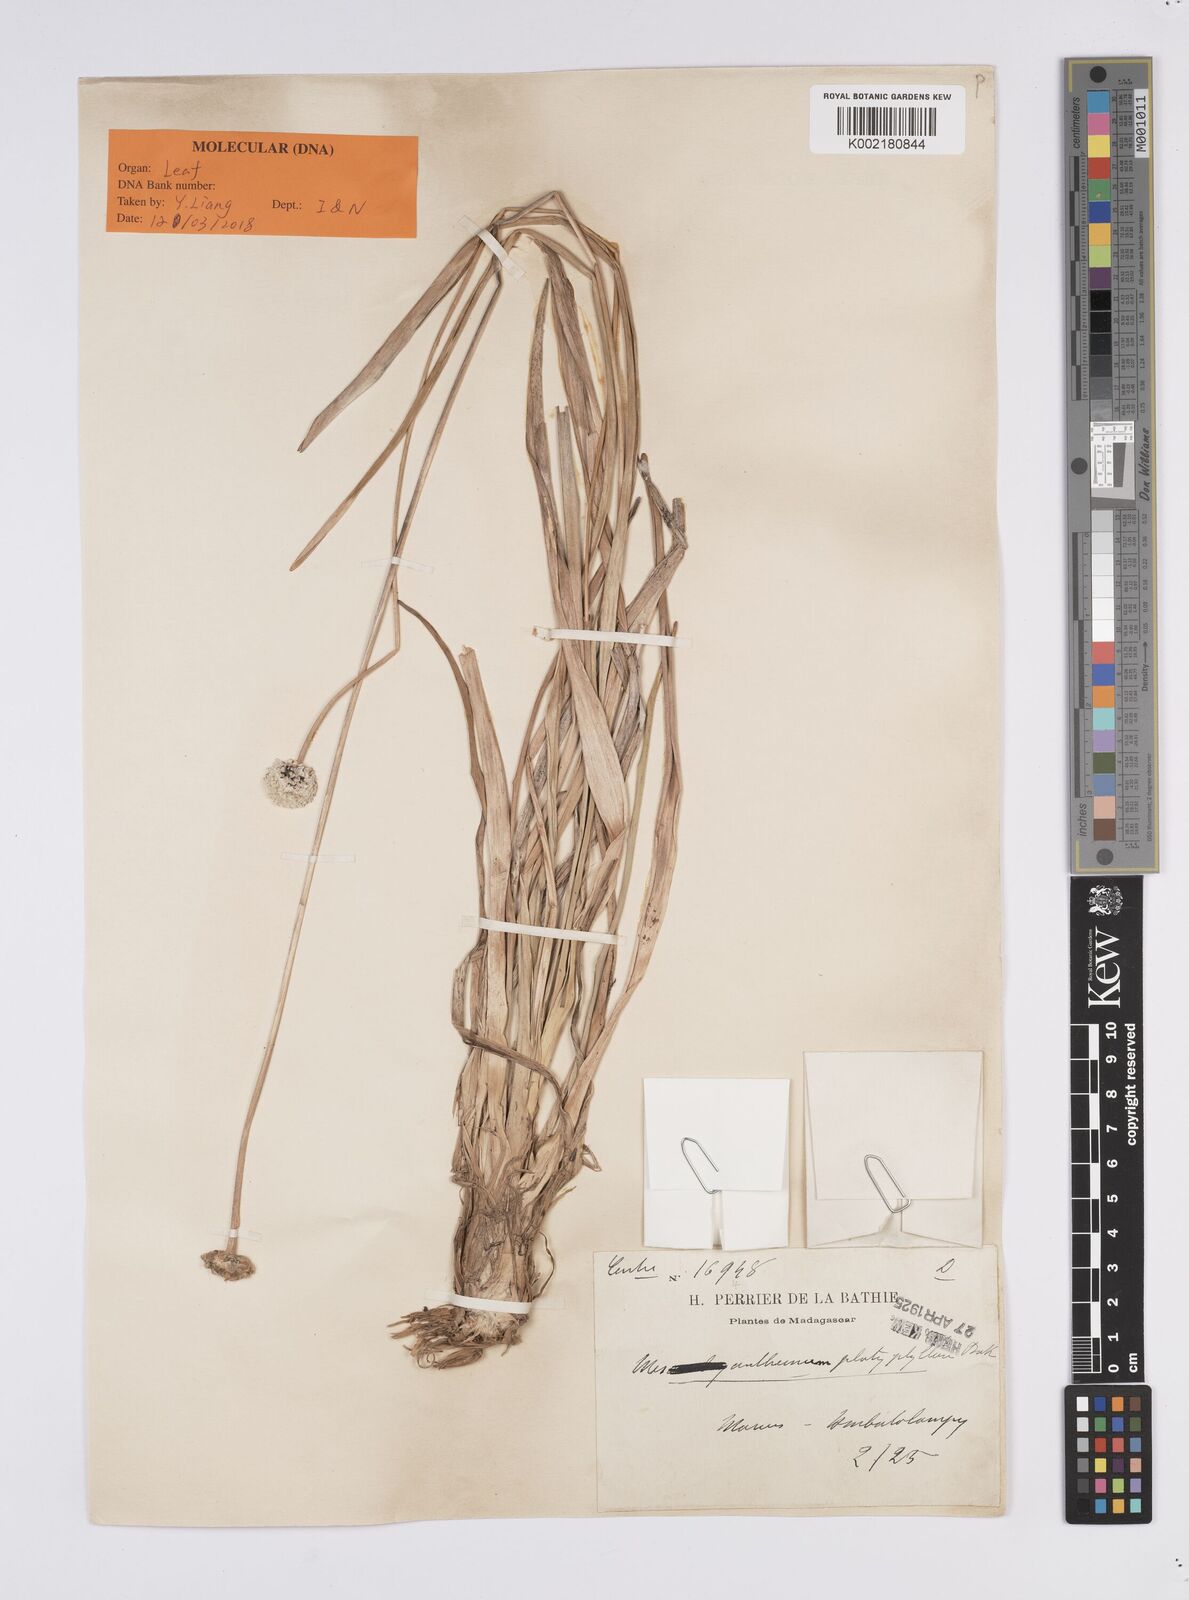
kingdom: Plantae
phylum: Tracheophyta
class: Liliopsida
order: Poales
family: Eriocaulaceae
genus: Mesanthemum
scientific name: Mesanthemum pubescens
